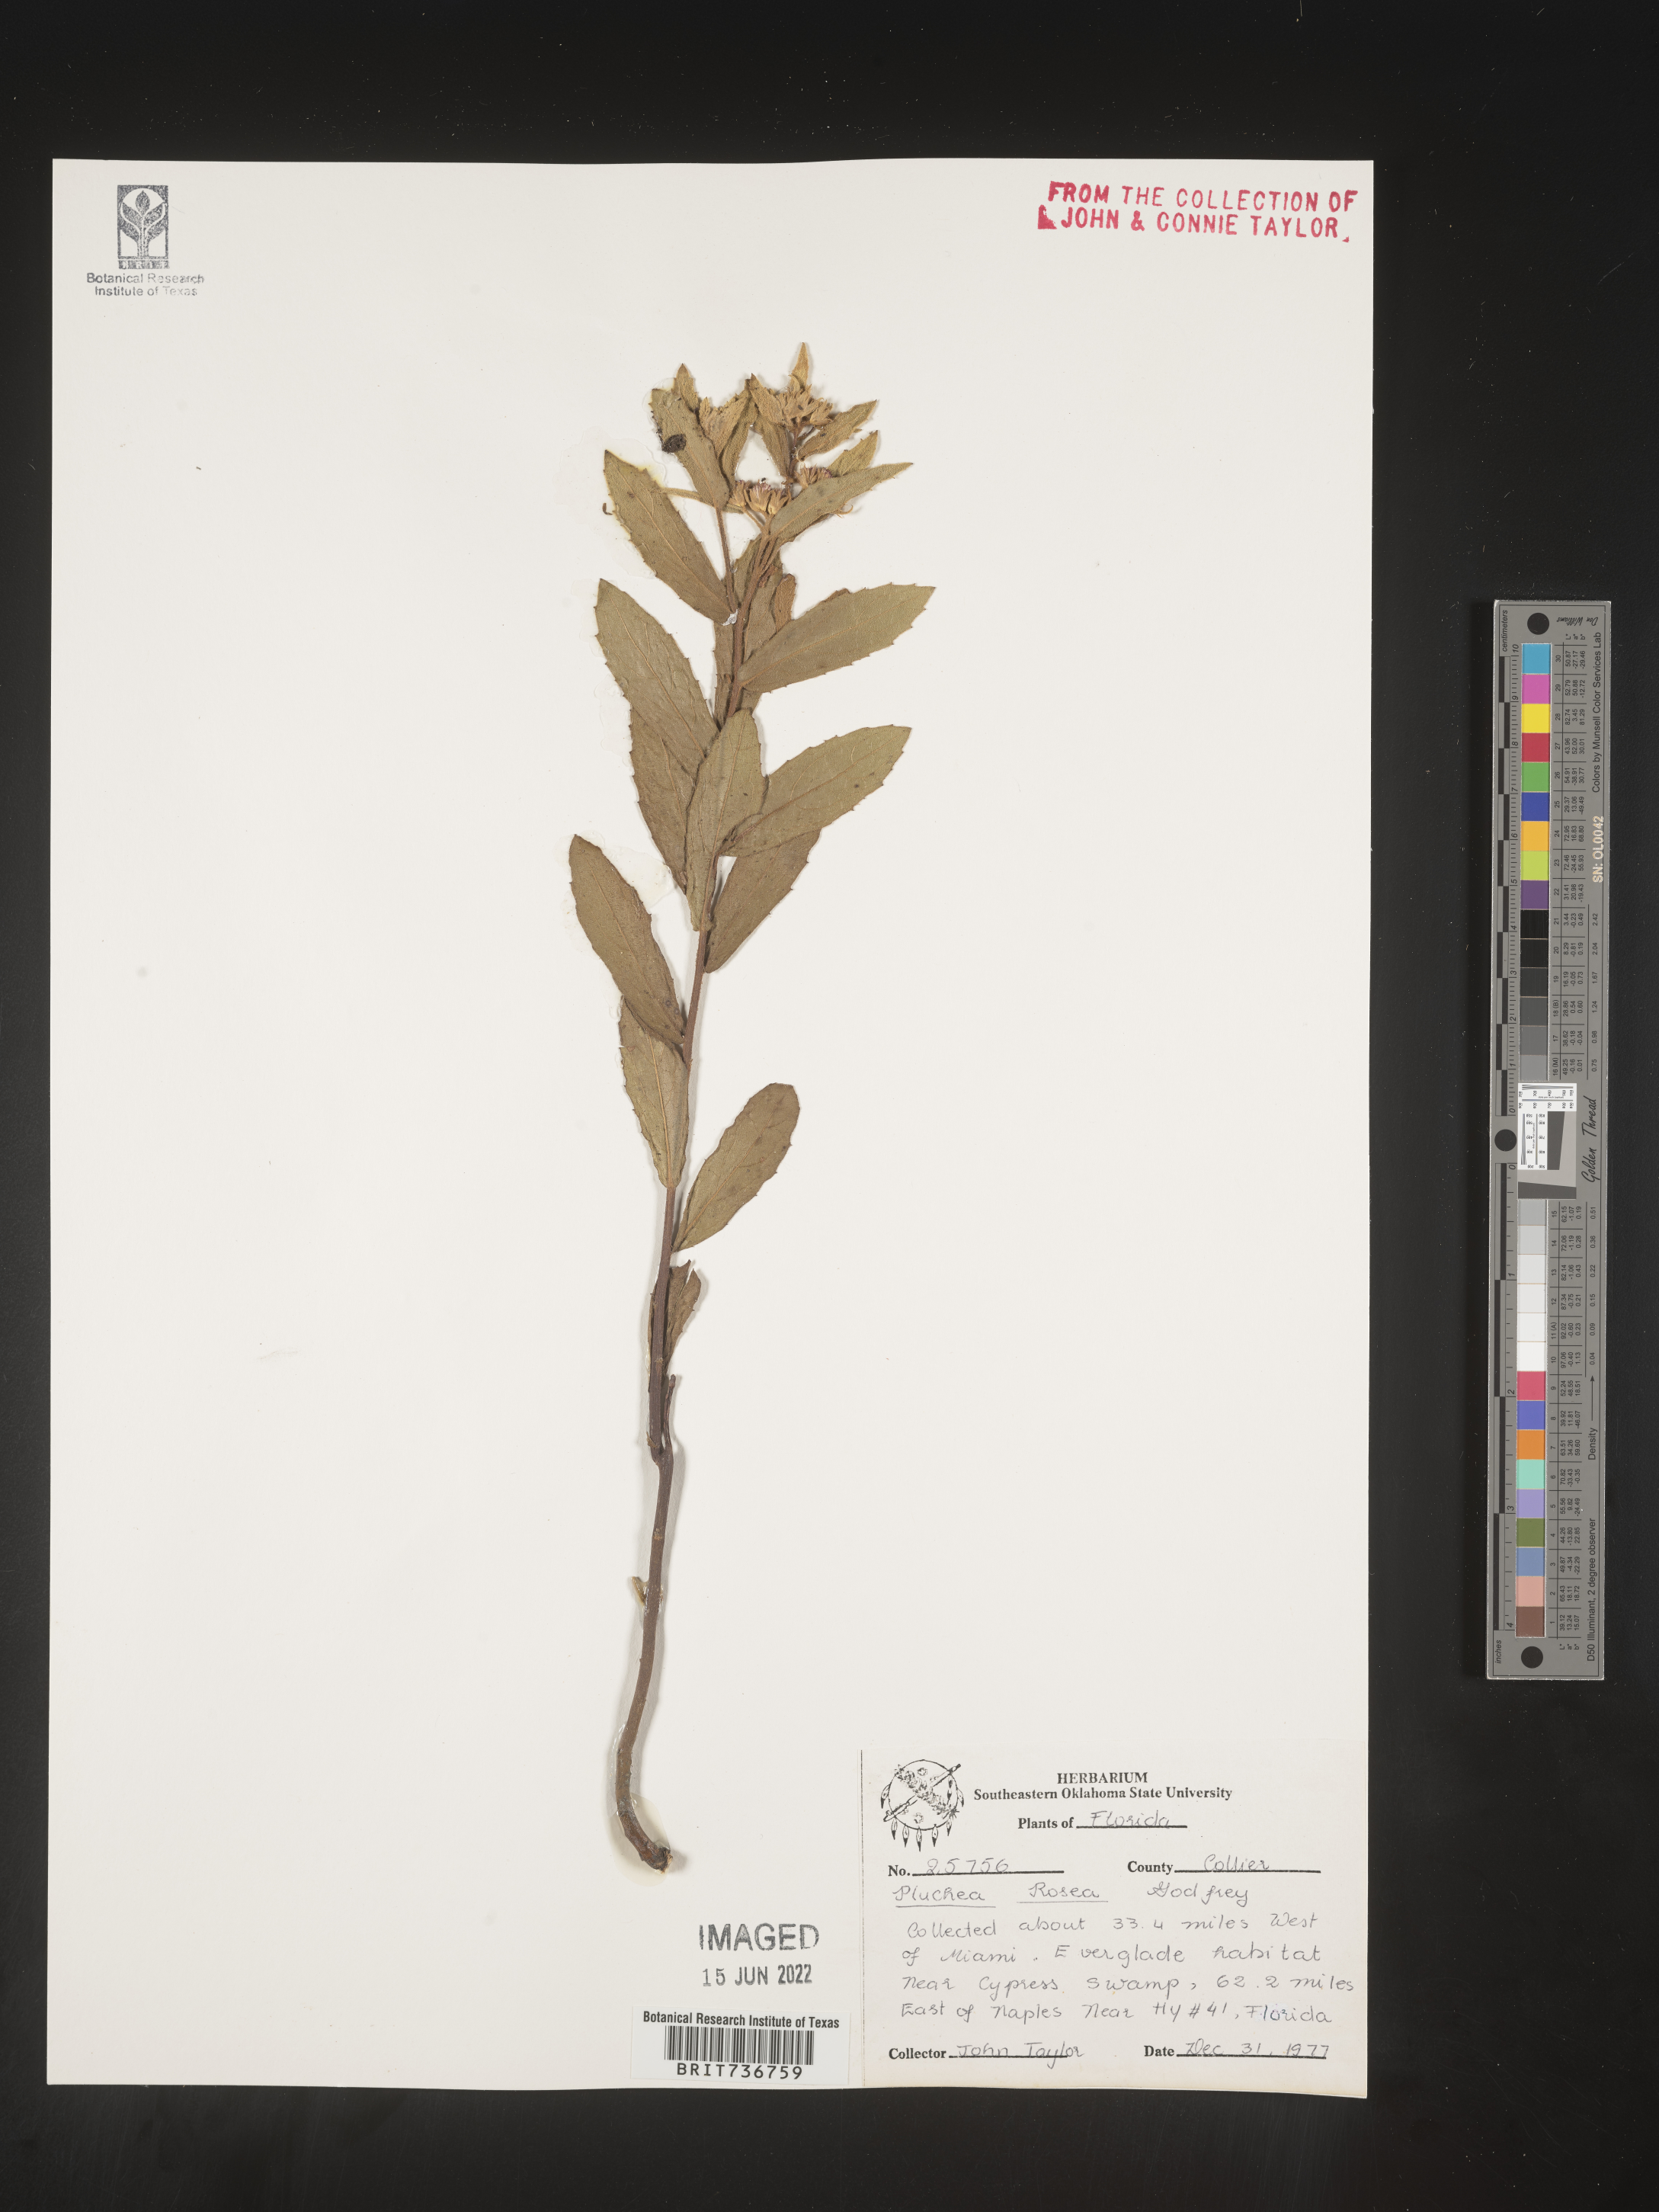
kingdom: Plantae
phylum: Tracheophyta
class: Magnoliopsida
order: Asterales
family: Asteraceae
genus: Pluchea
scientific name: Pluchea baccharis
